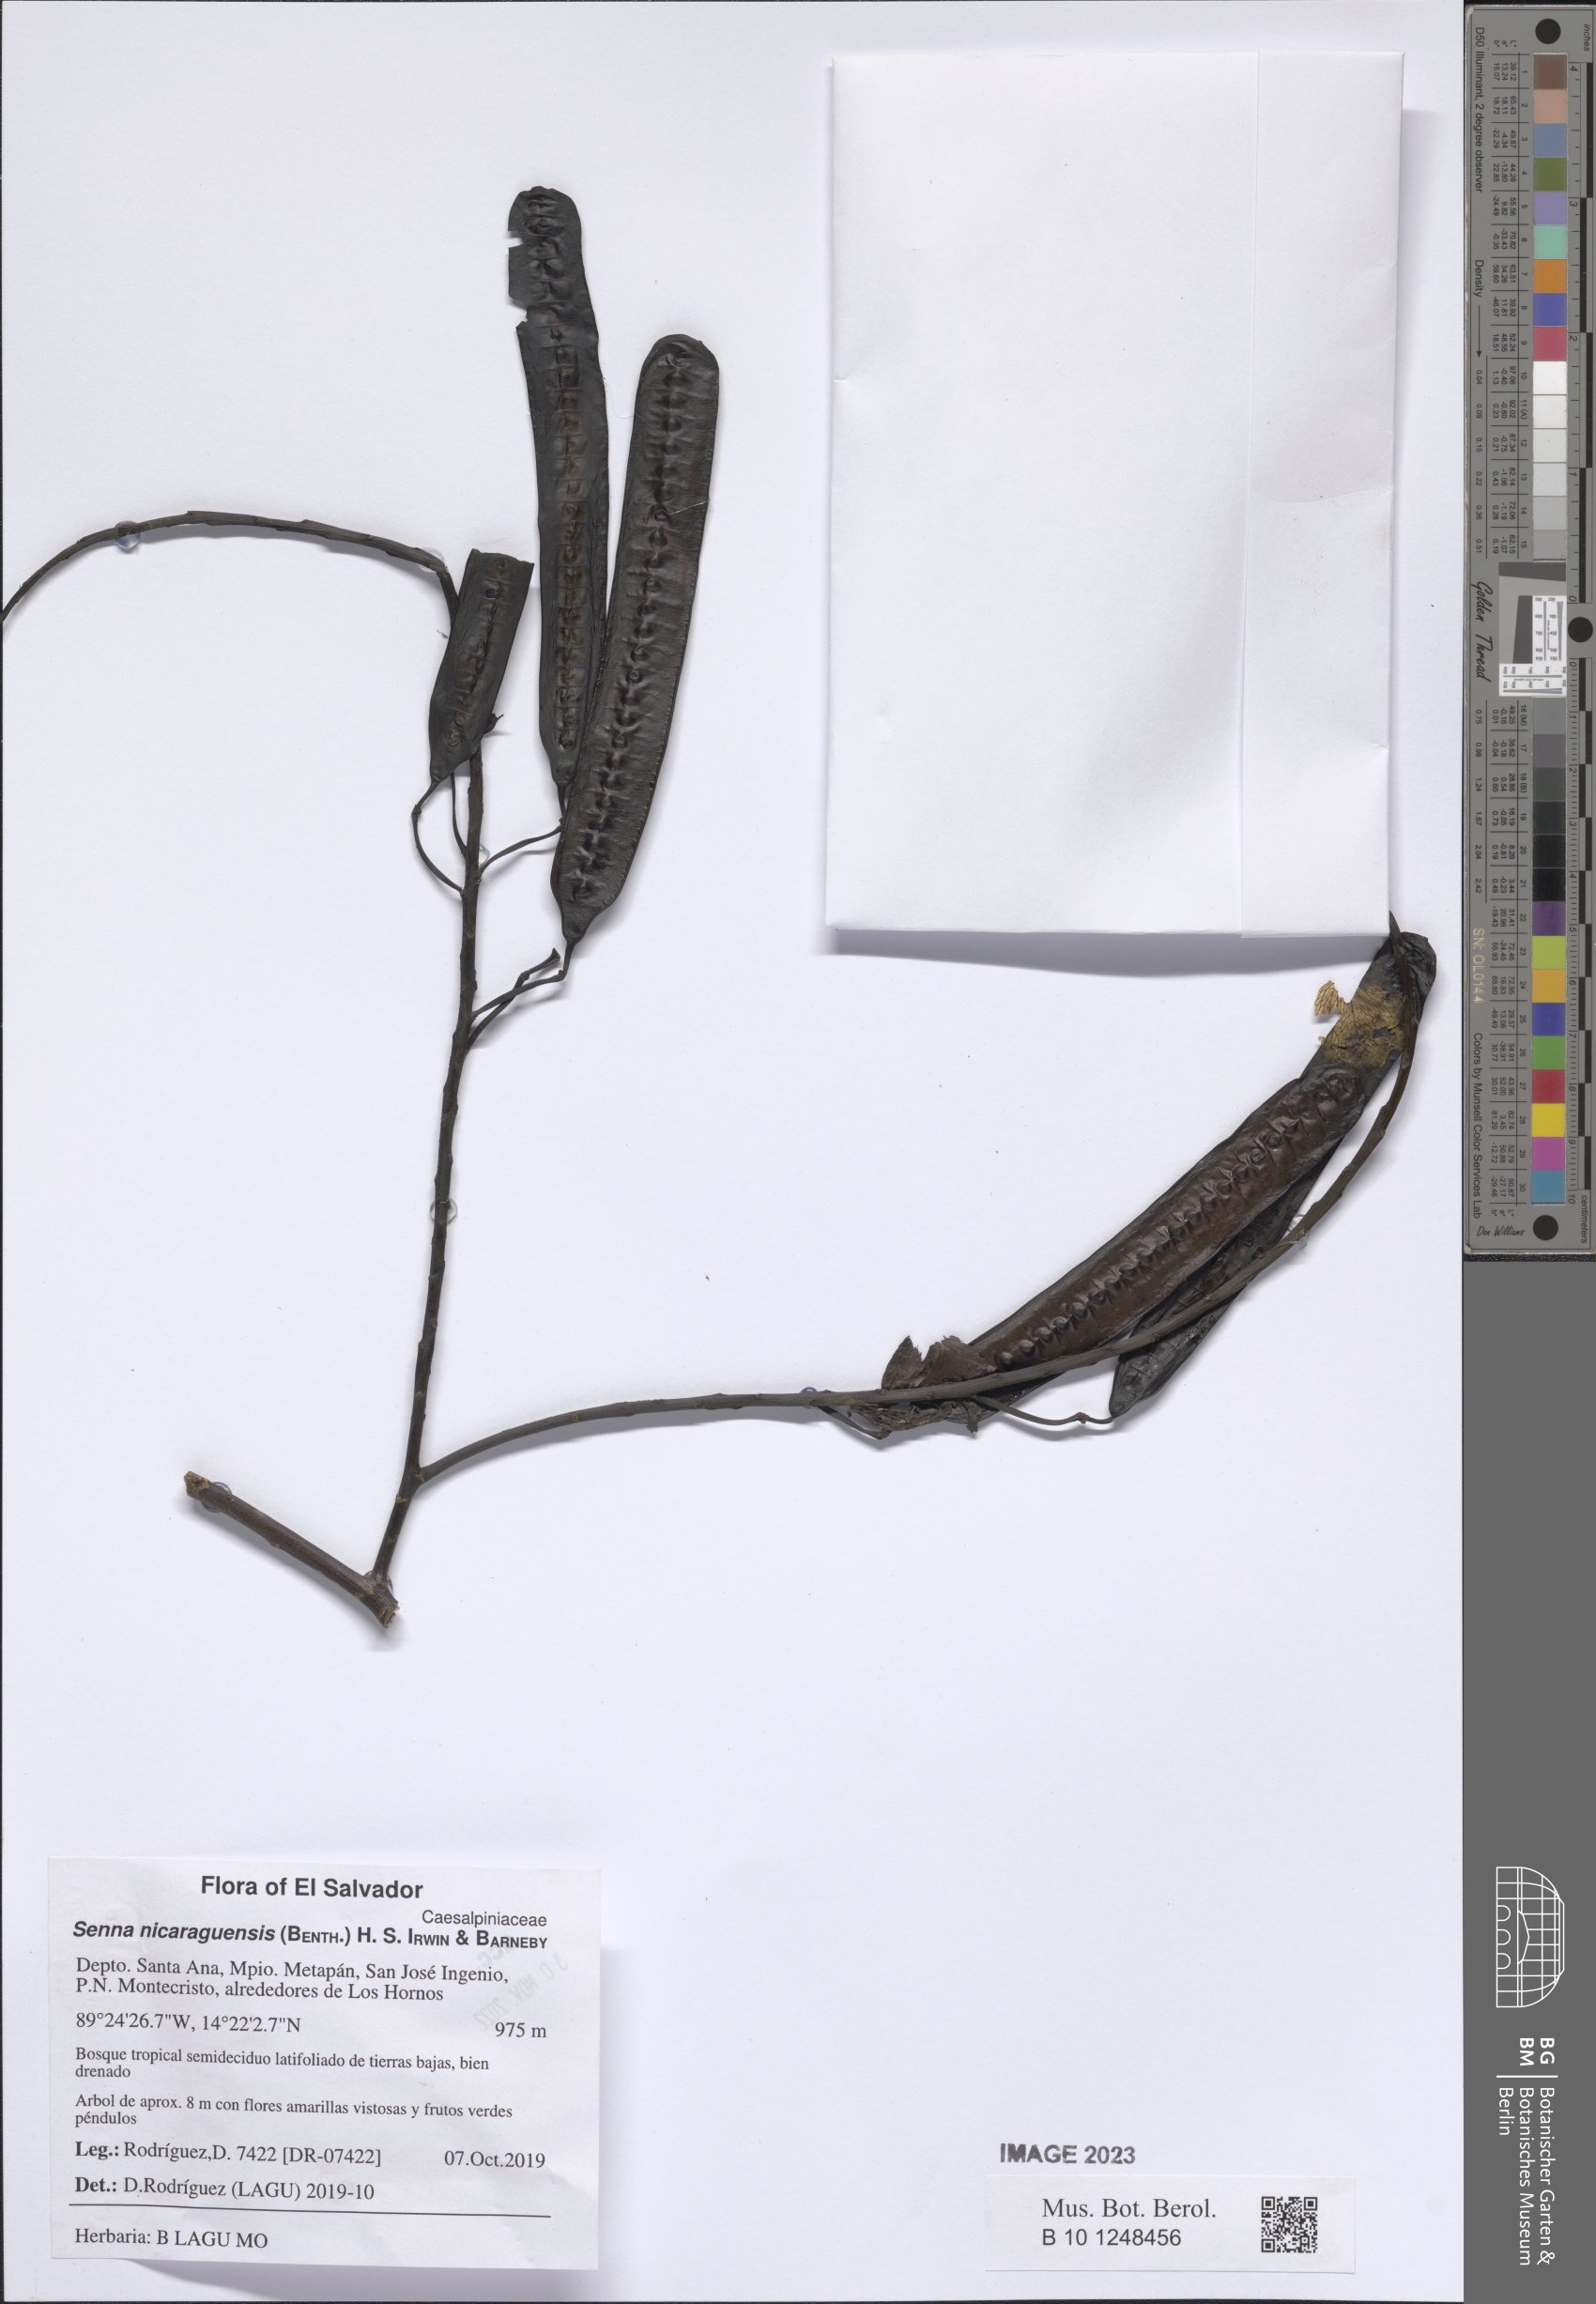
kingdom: Plantae
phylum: Tracheophyta
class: Magnoliopsida
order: Fabales
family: Fabaceae
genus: Senna
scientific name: Senna nicaraguensis
